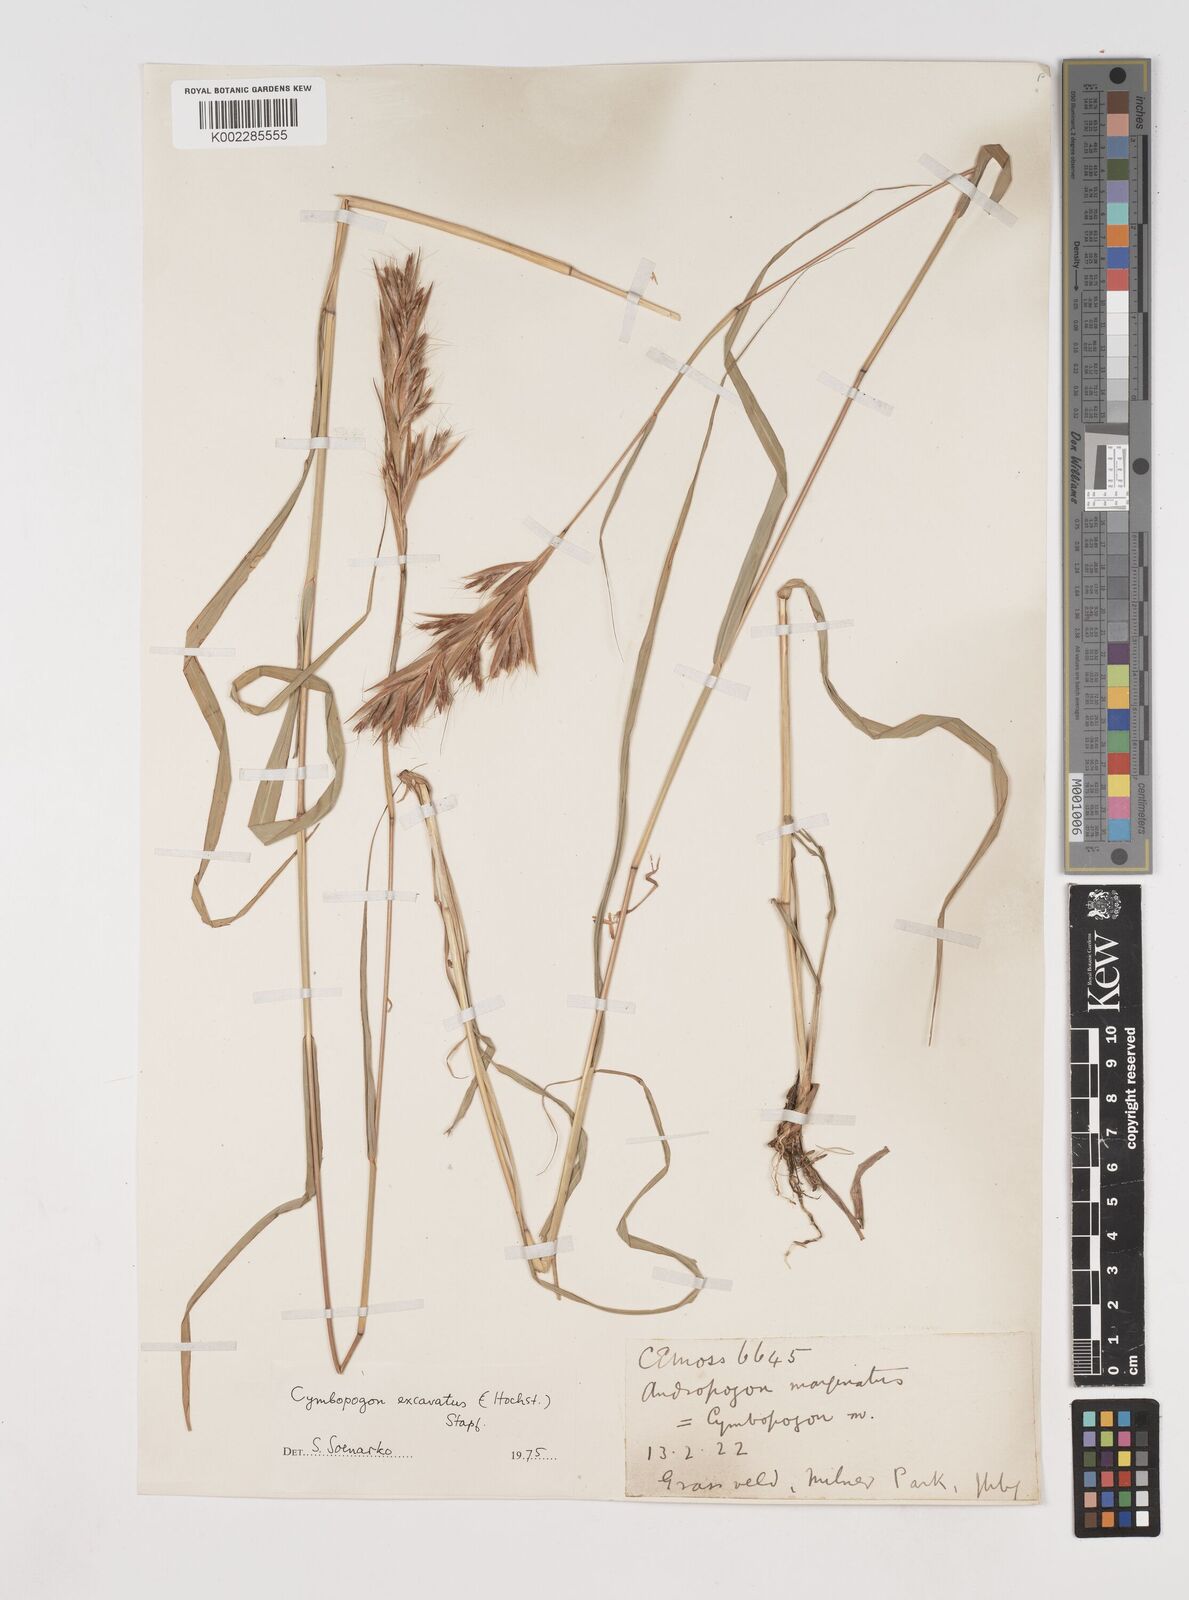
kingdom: Plantae
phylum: Tracheophyta
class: Liliopsida
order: Poales
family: Poaceae
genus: Cymbopogon
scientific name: Cymbopogon caesius
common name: Kachi grass
